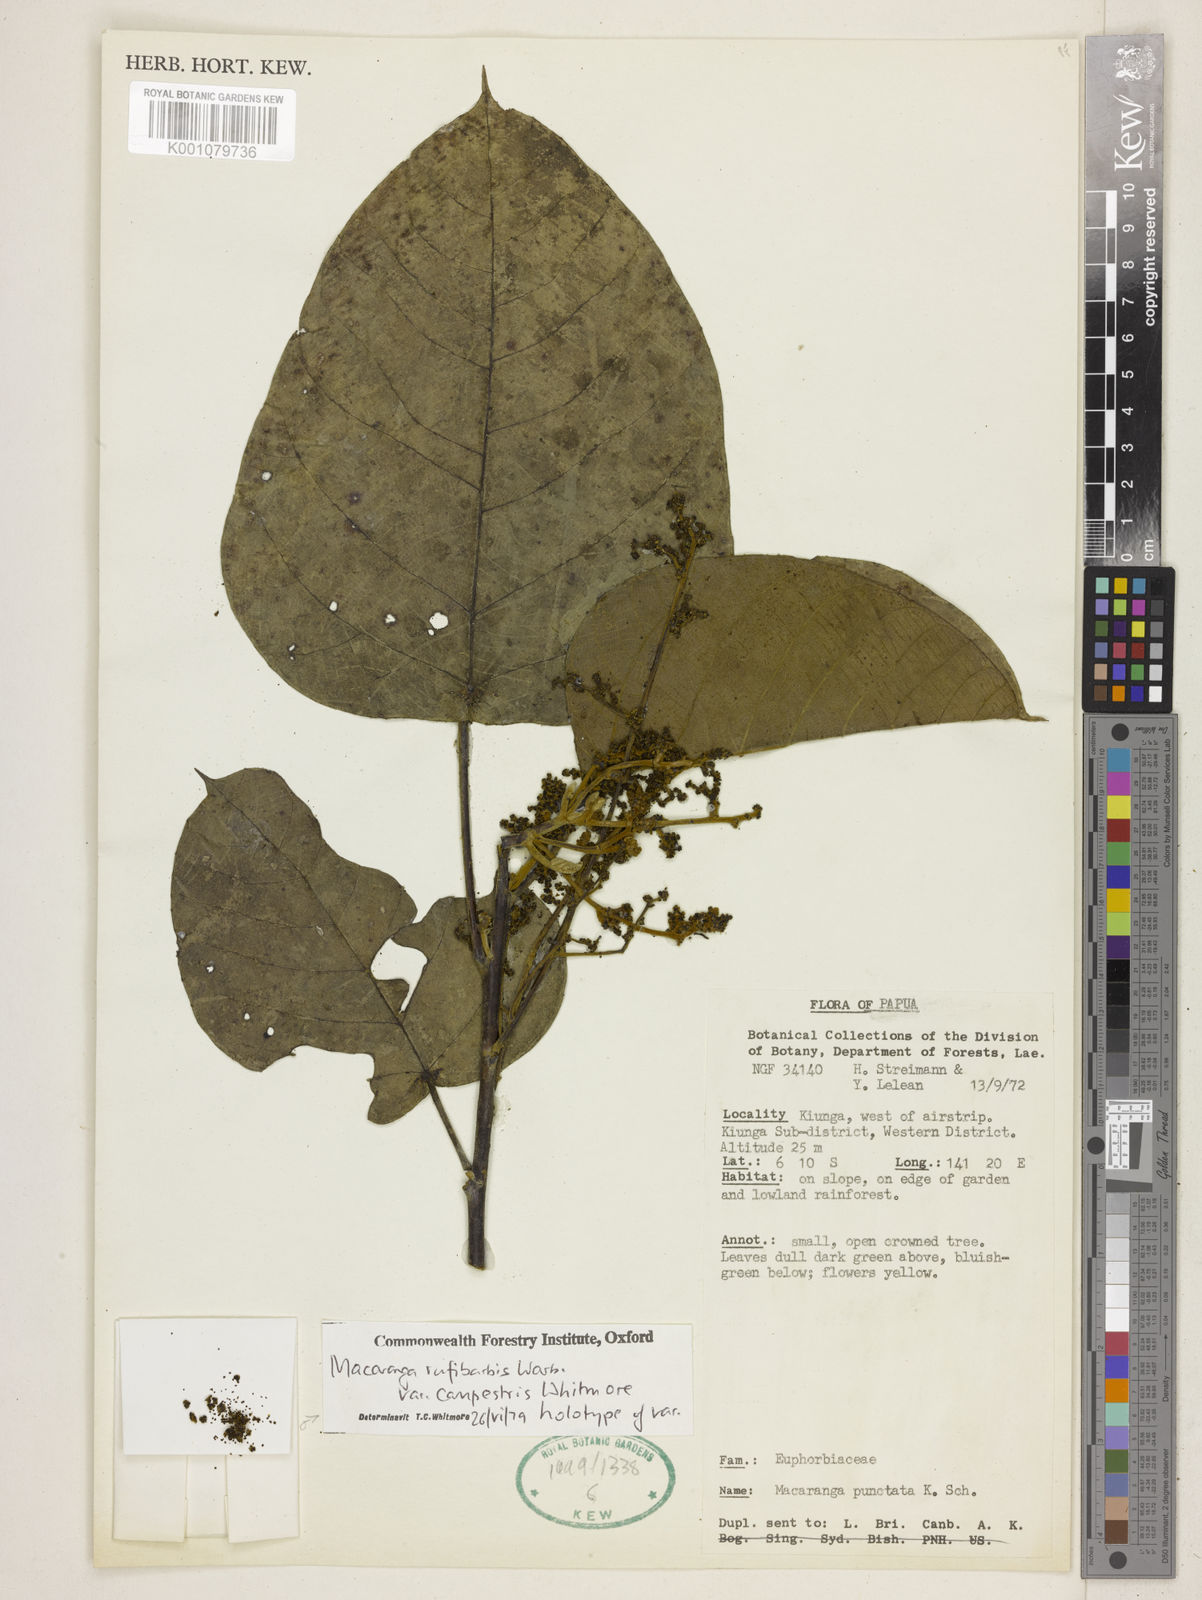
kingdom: Plantae
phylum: Tracheophyta
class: Magnoliopsida
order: Malpighiales
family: Euphorbiaceae
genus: Macaranga
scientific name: Macaranga rufibarbis
